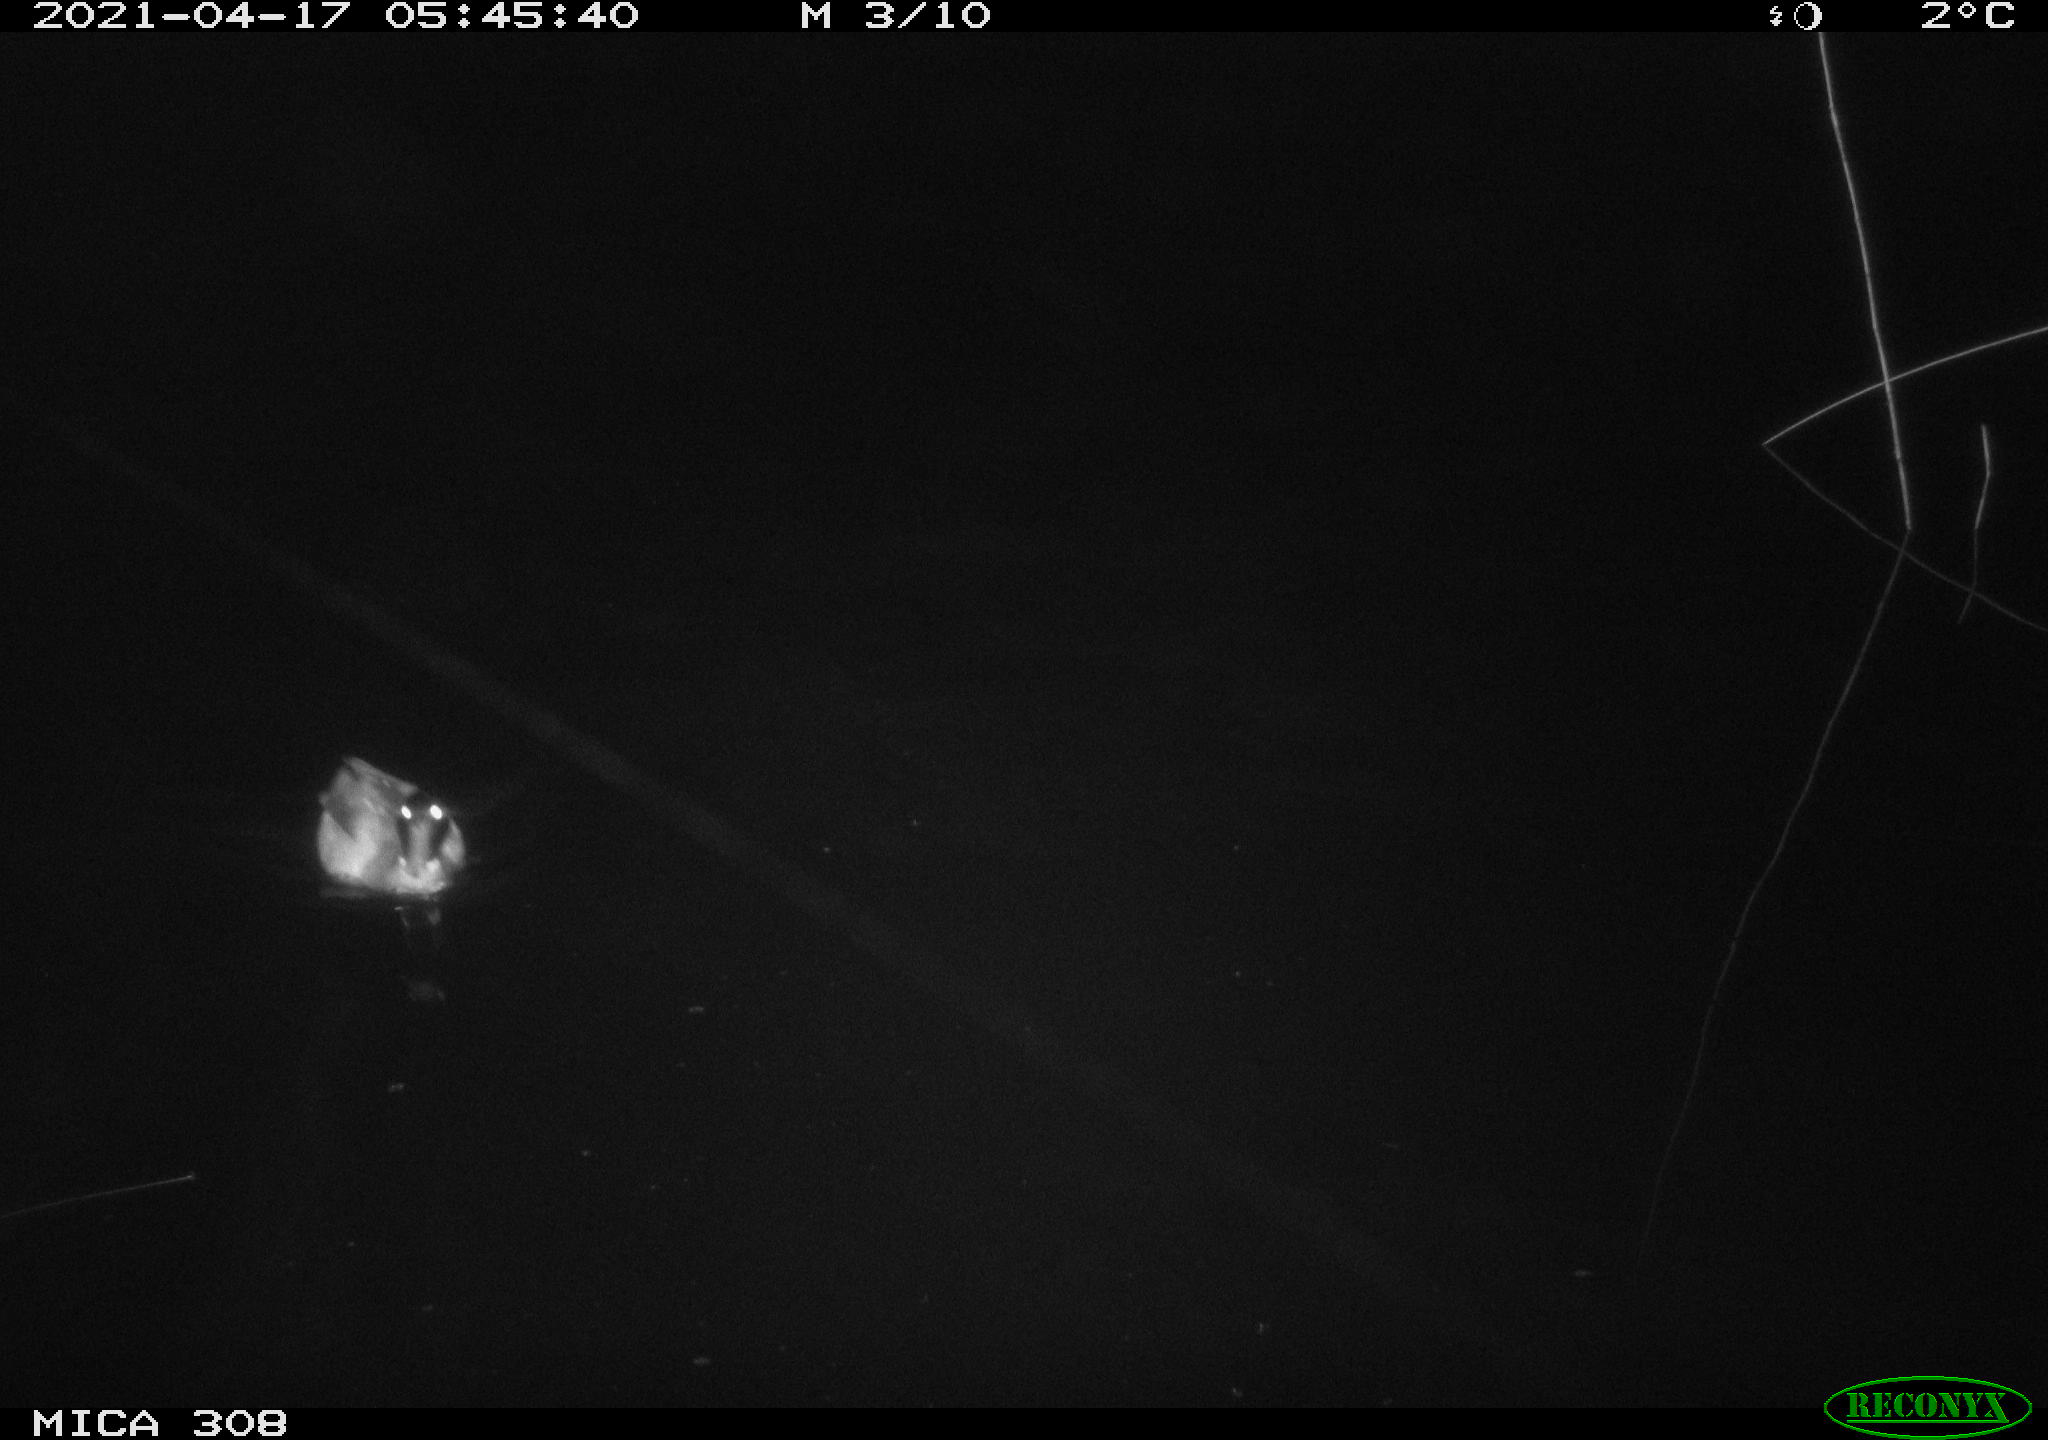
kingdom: Animalia
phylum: Chordata
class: Aves
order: Anseriformes
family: Anatidae
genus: Anas
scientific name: Anas platyrhynchos
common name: Mallard
